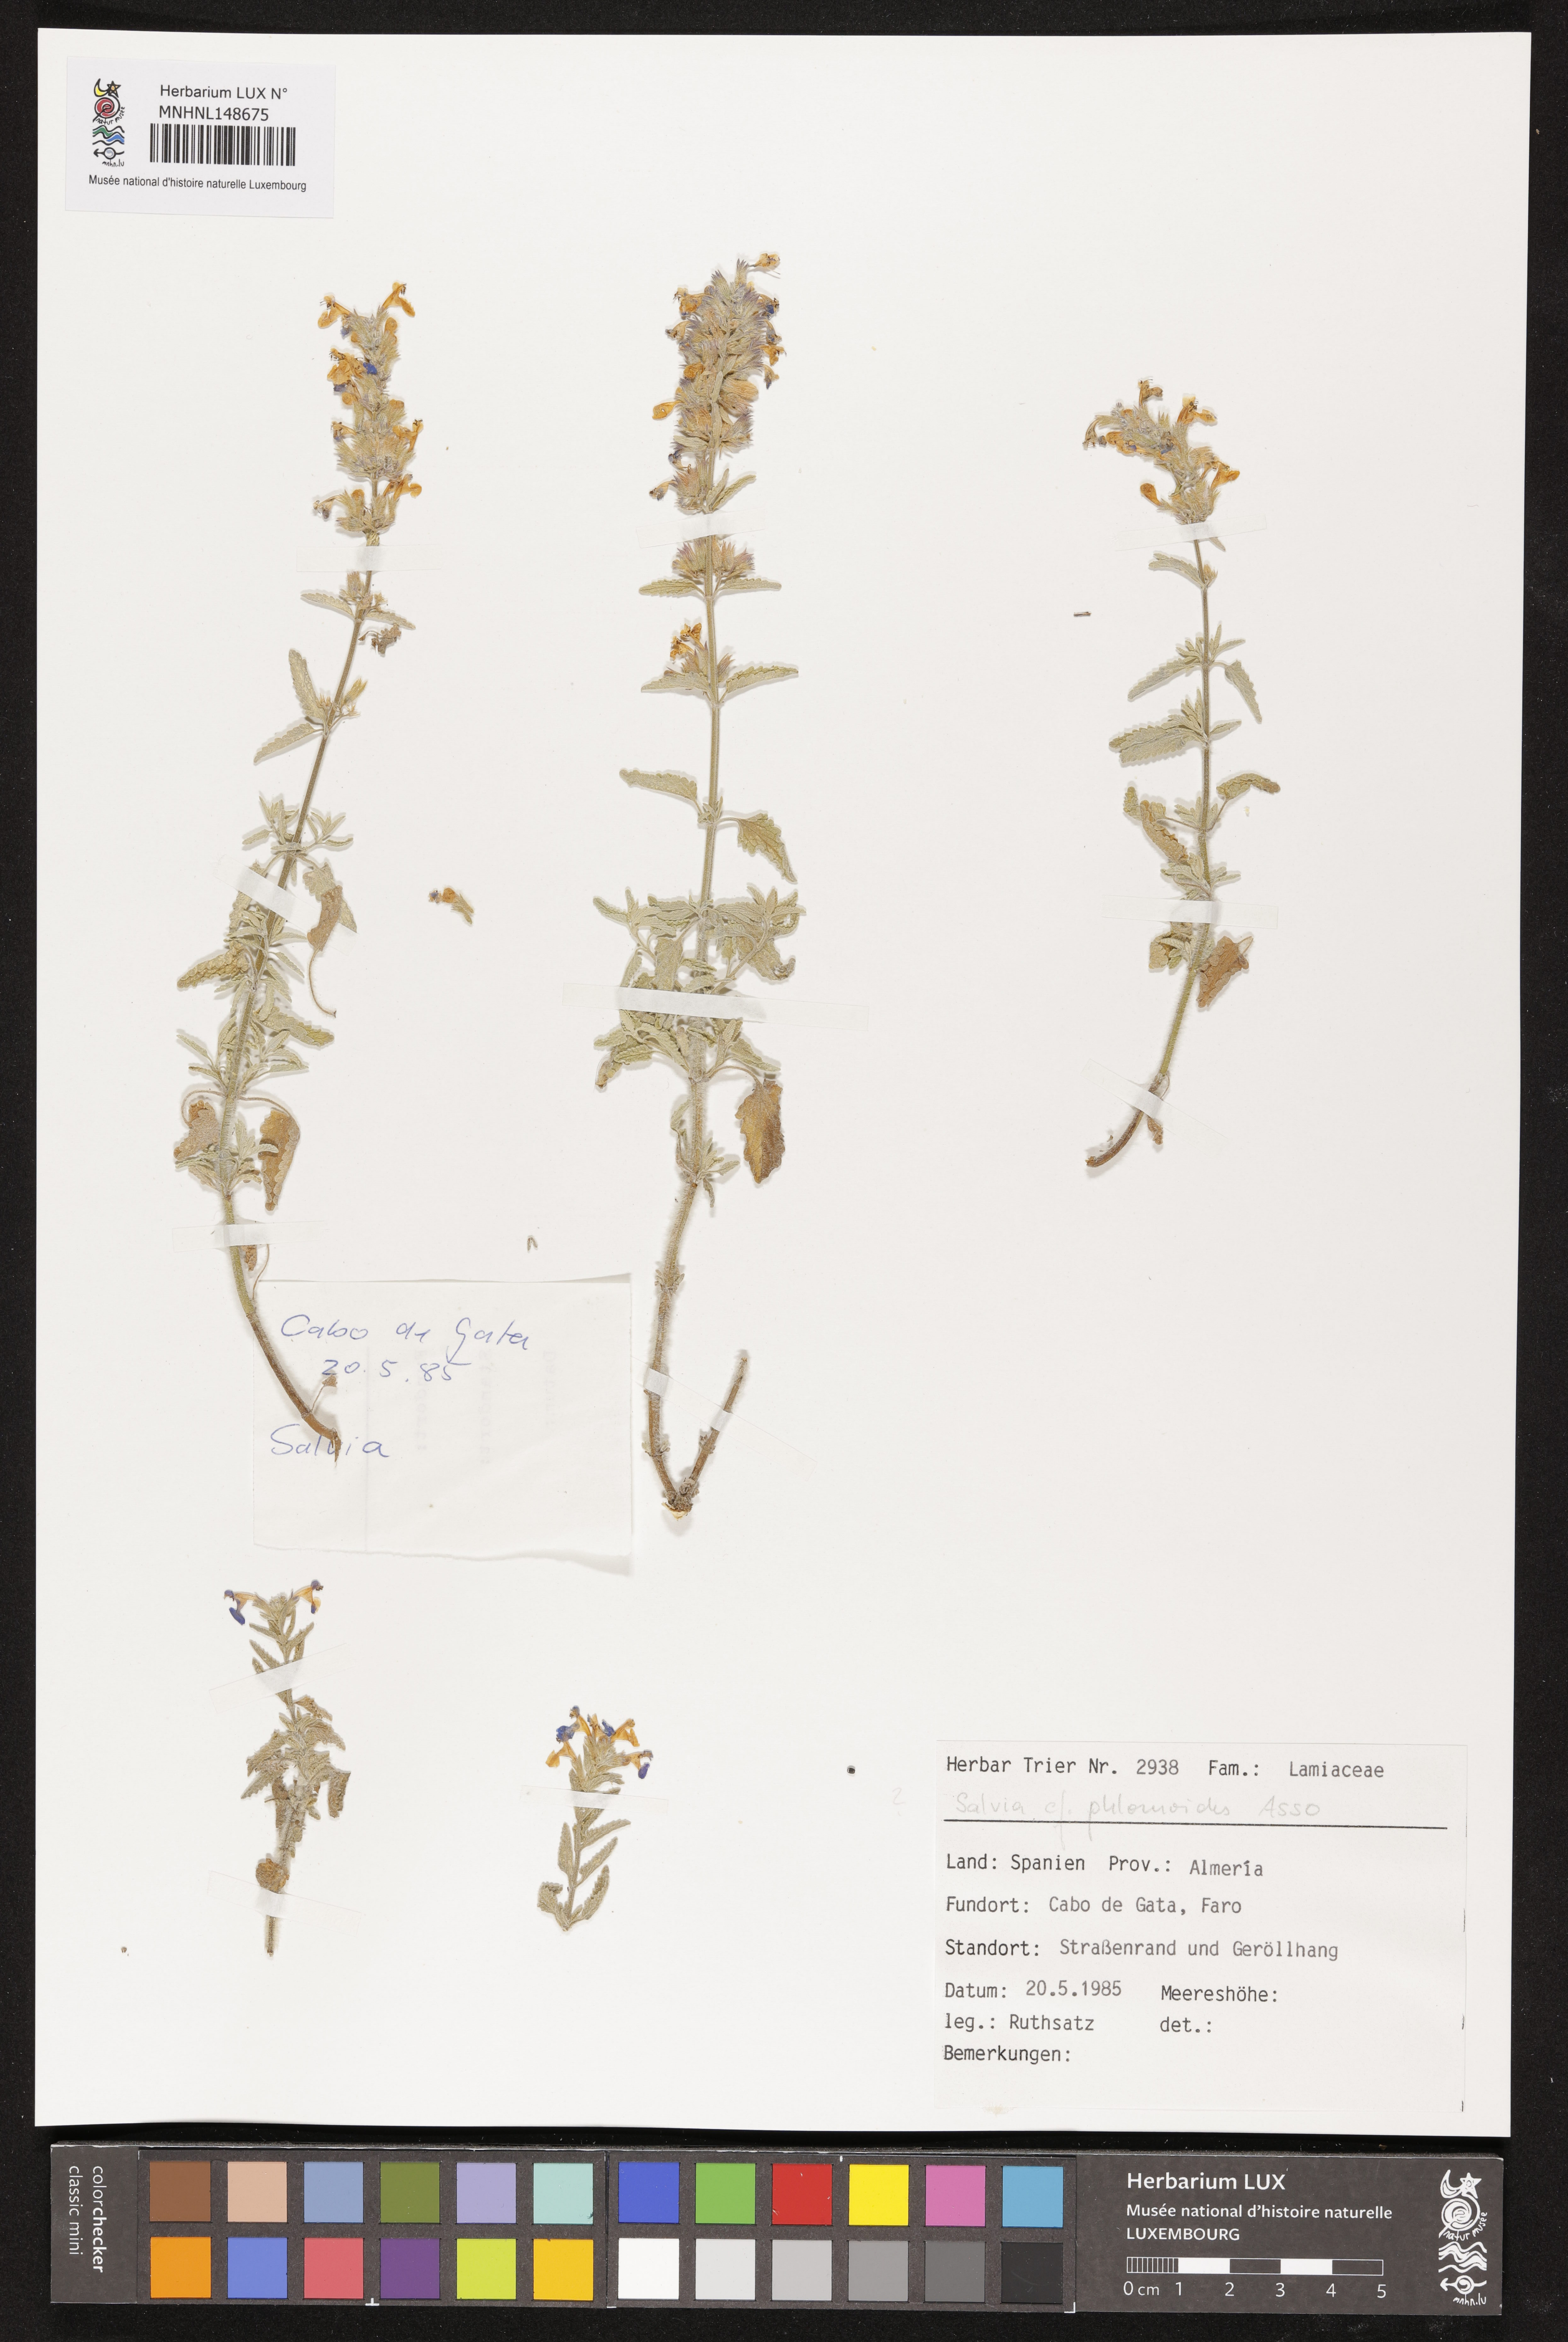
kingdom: Plantae
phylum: Tracheophyta
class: Magnoliopsida
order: Lamiales
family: Lamiaceae
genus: Salvia
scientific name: Salvia phlomoides
